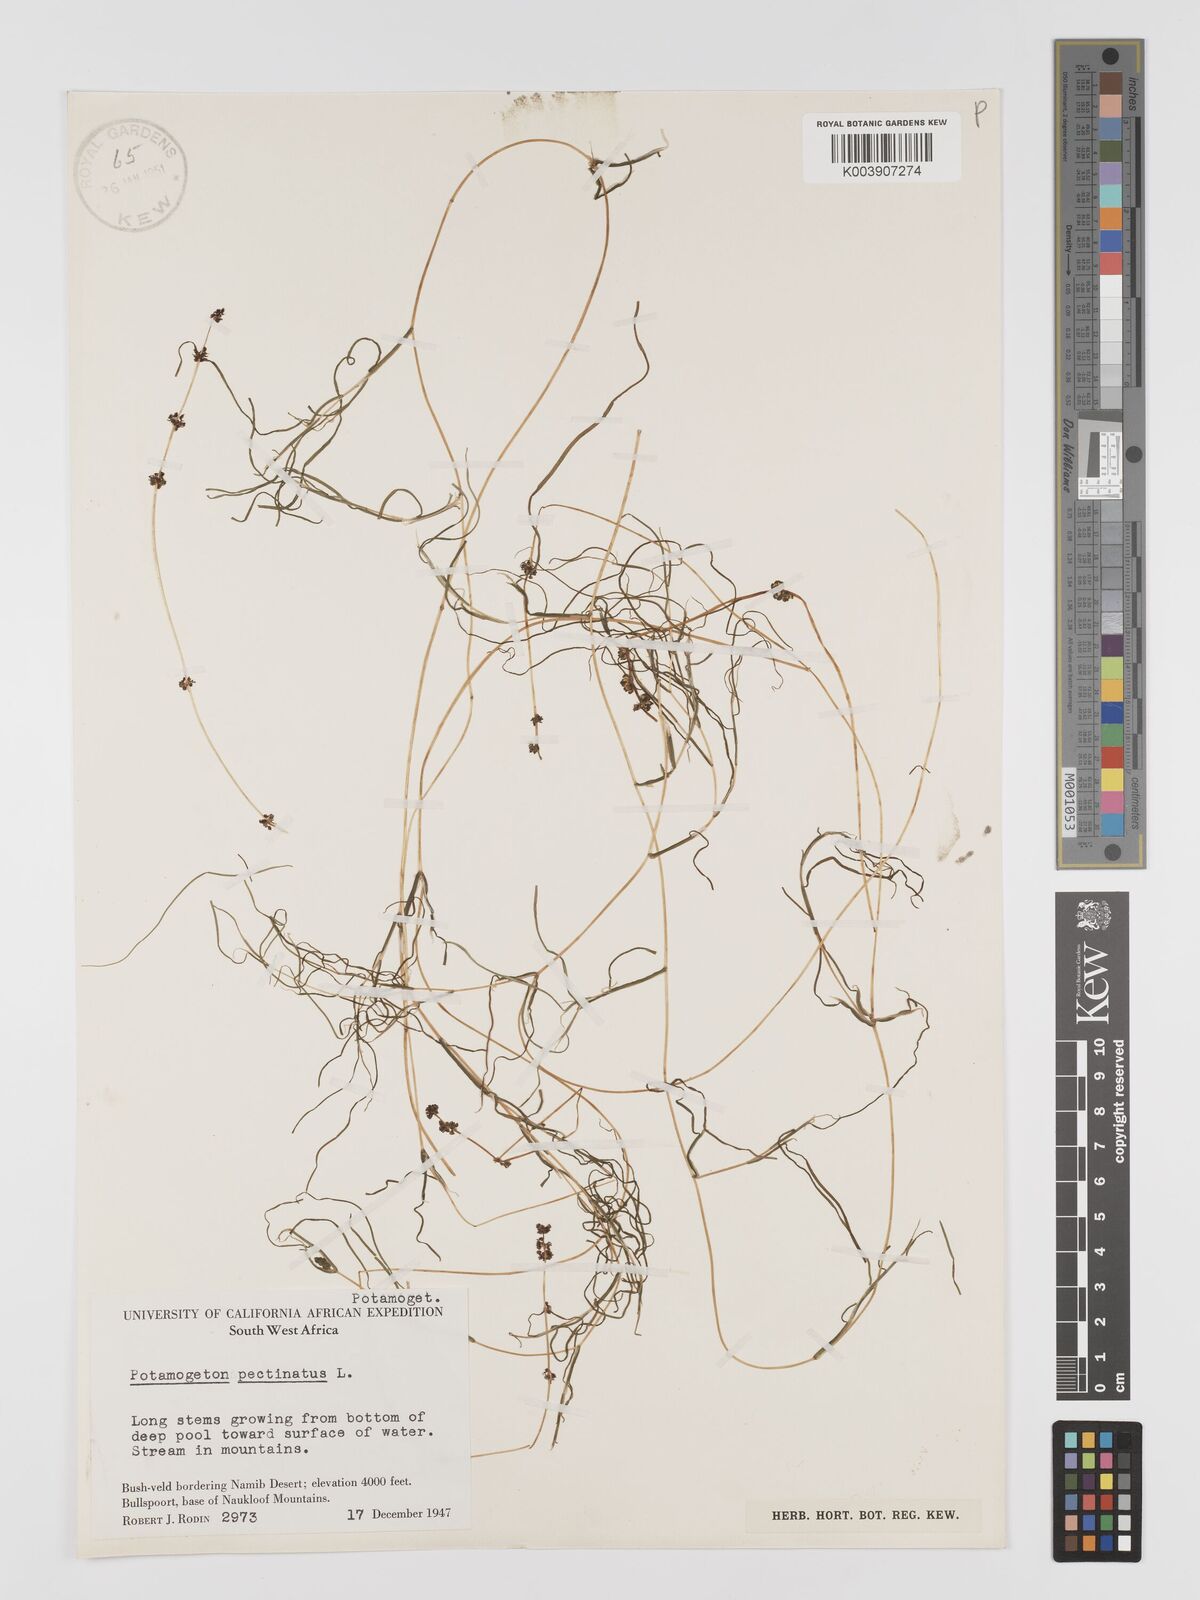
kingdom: Plantae
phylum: Tracheophyta
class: Liliopsida
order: Alismatales
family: Potamogetonaceae
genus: Stuckenia
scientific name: Stuckenia pectinata
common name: Sago pondweed
